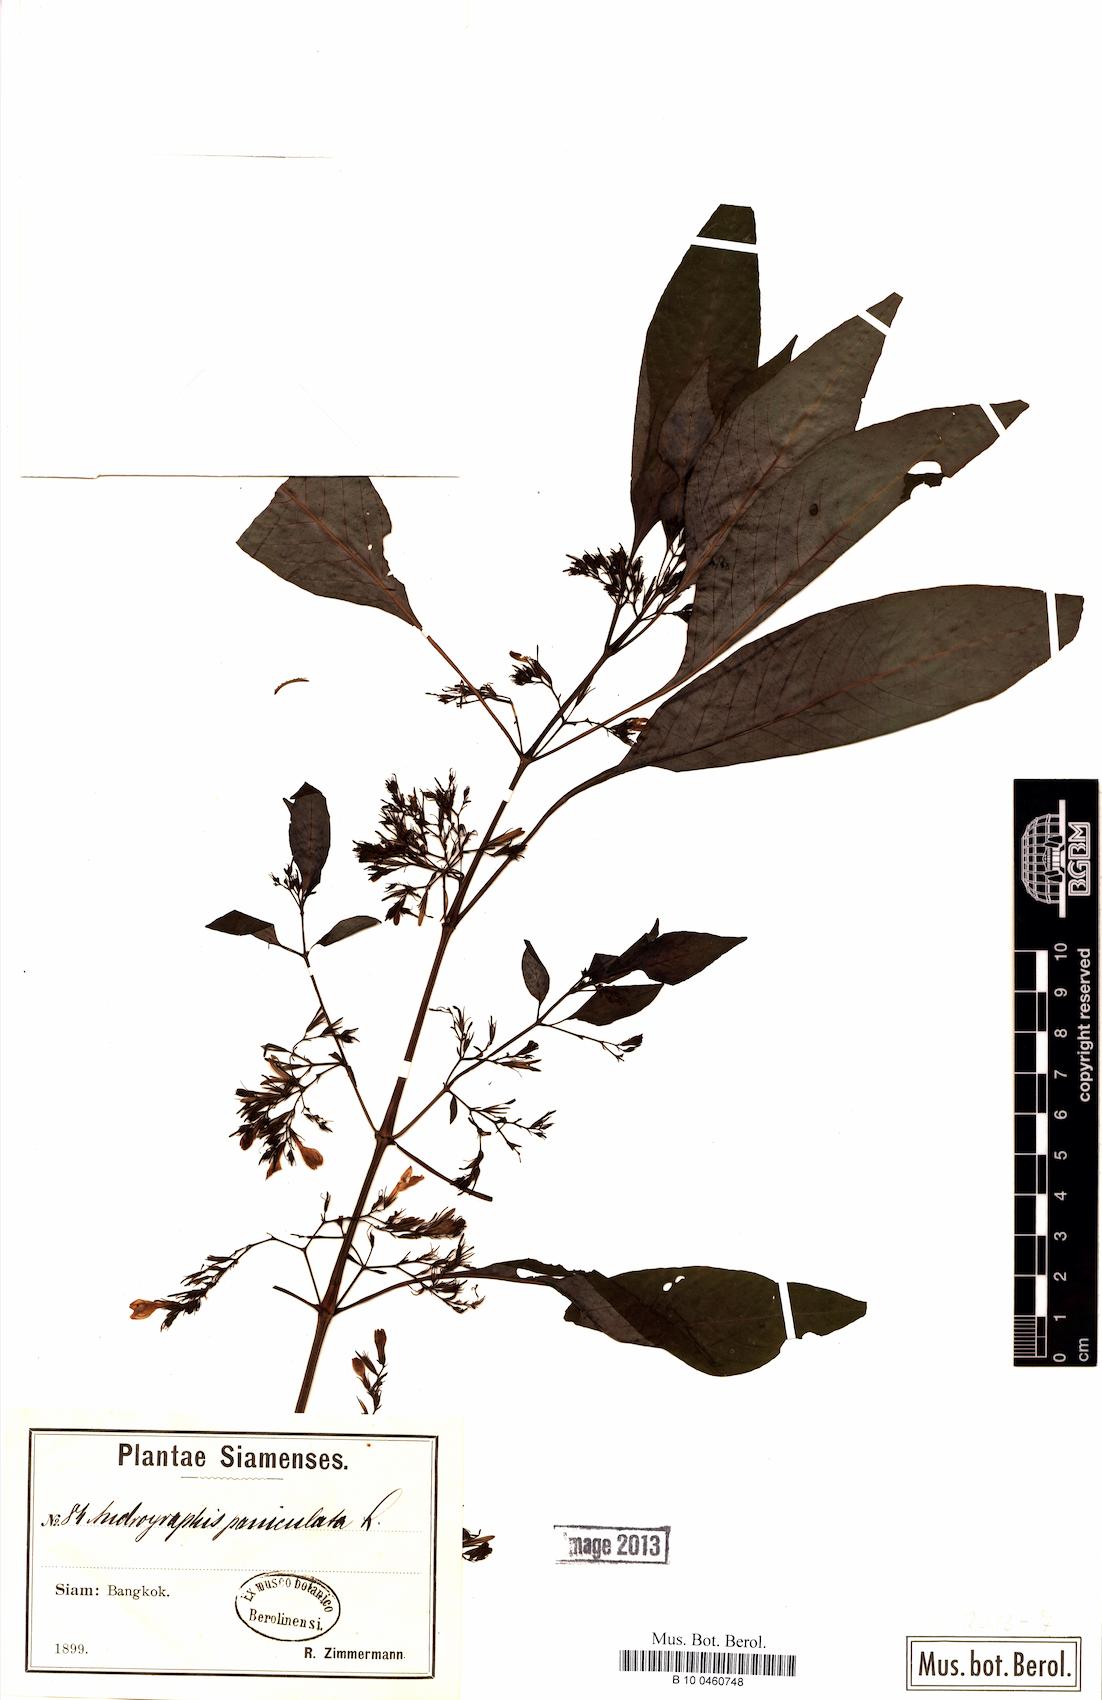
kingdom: Plantae
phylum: Tracheophyta
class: Magnoliopsida
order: Lamiales
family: Acanthaceae
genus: Gymnostachyum
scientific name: Gymnostachyum
